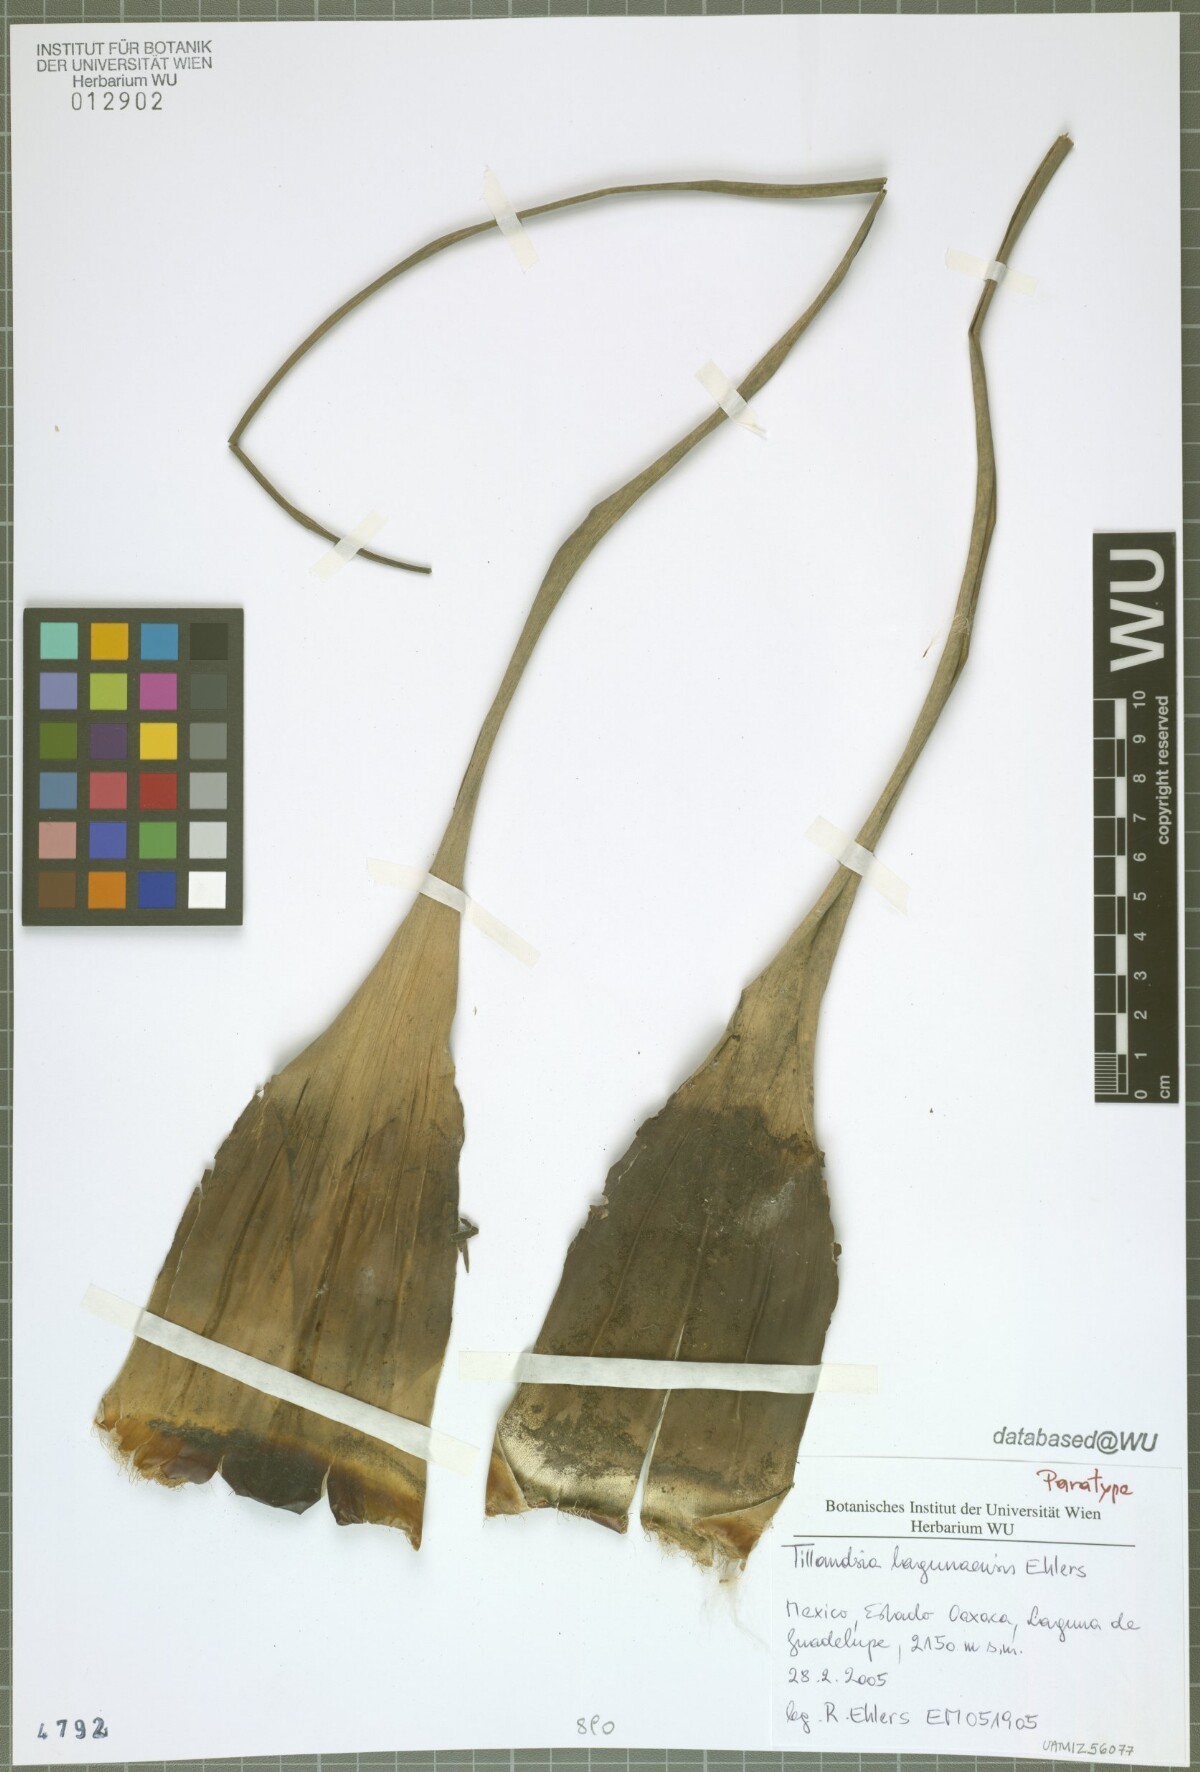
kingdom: Plantae
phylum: Tracheophyta
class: Liliopsida
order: Poales
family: Bromeliaceae
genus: Tillandsia
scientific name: Tillandsia lagunaensis
